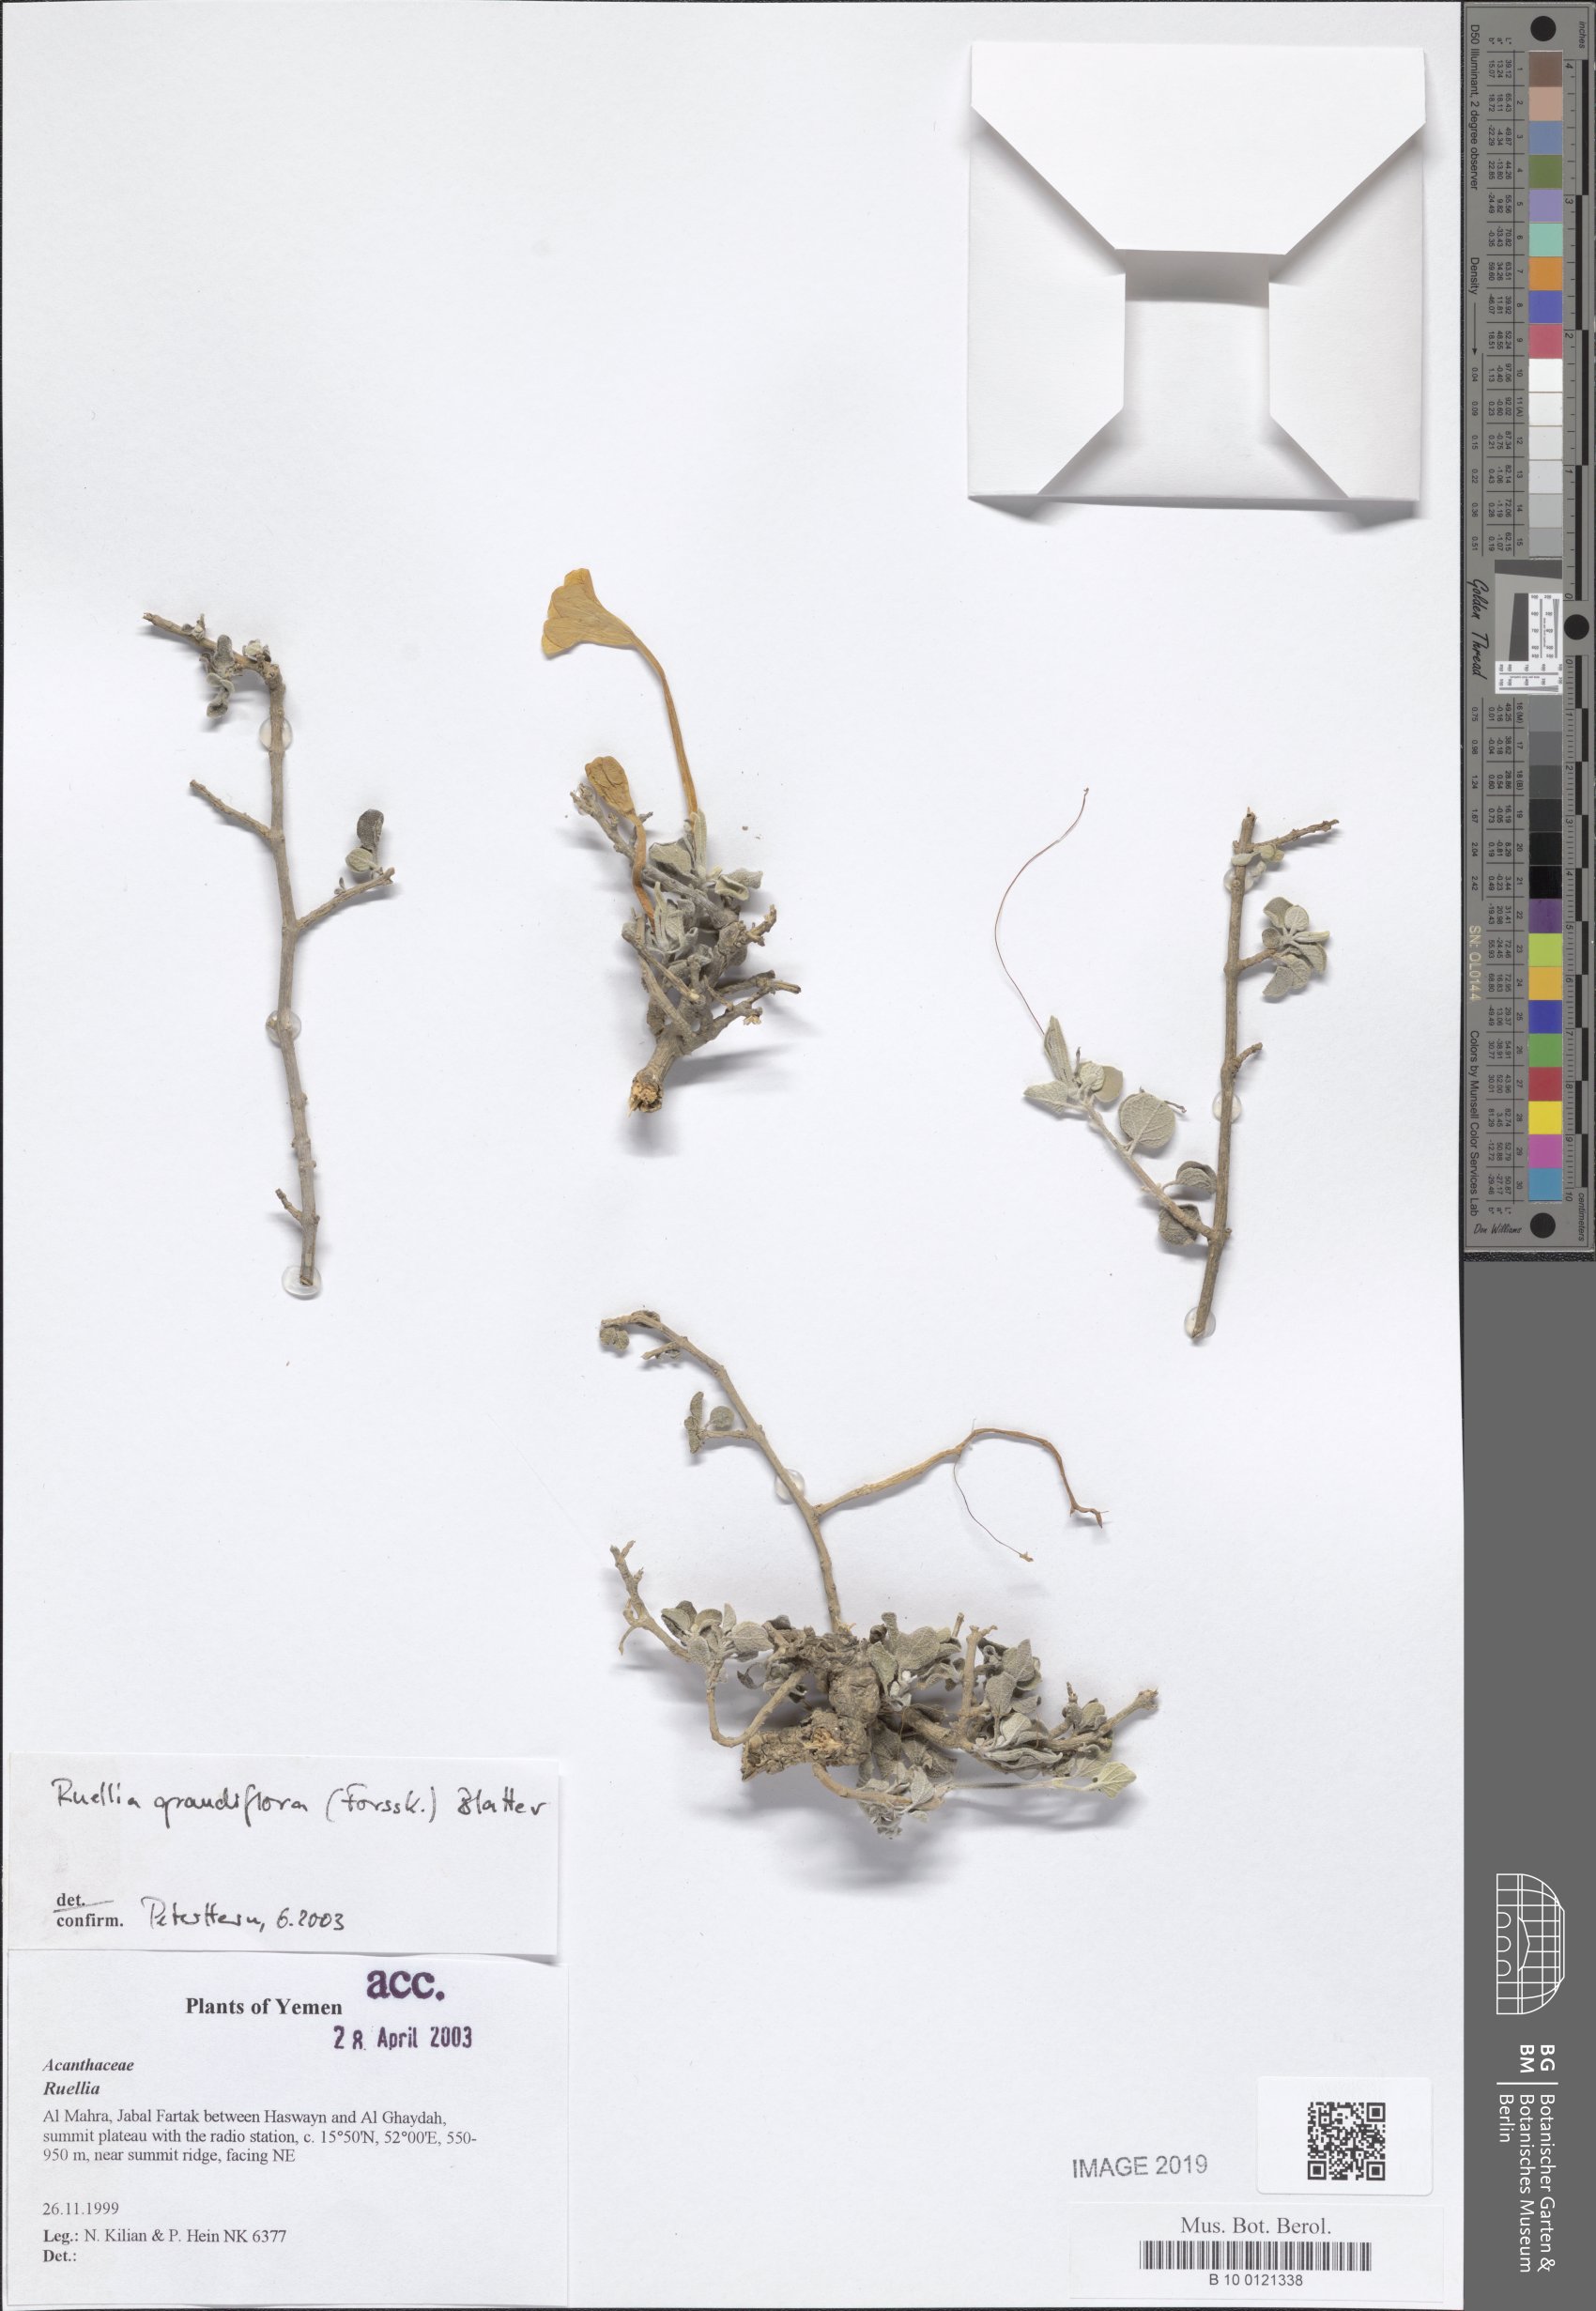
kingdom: Plantae
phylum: Tracheophyta
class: Magnoliopsida
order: Lamiales
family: Acanthaceae
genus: Ruellia
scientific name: Ruellia grandiflora
